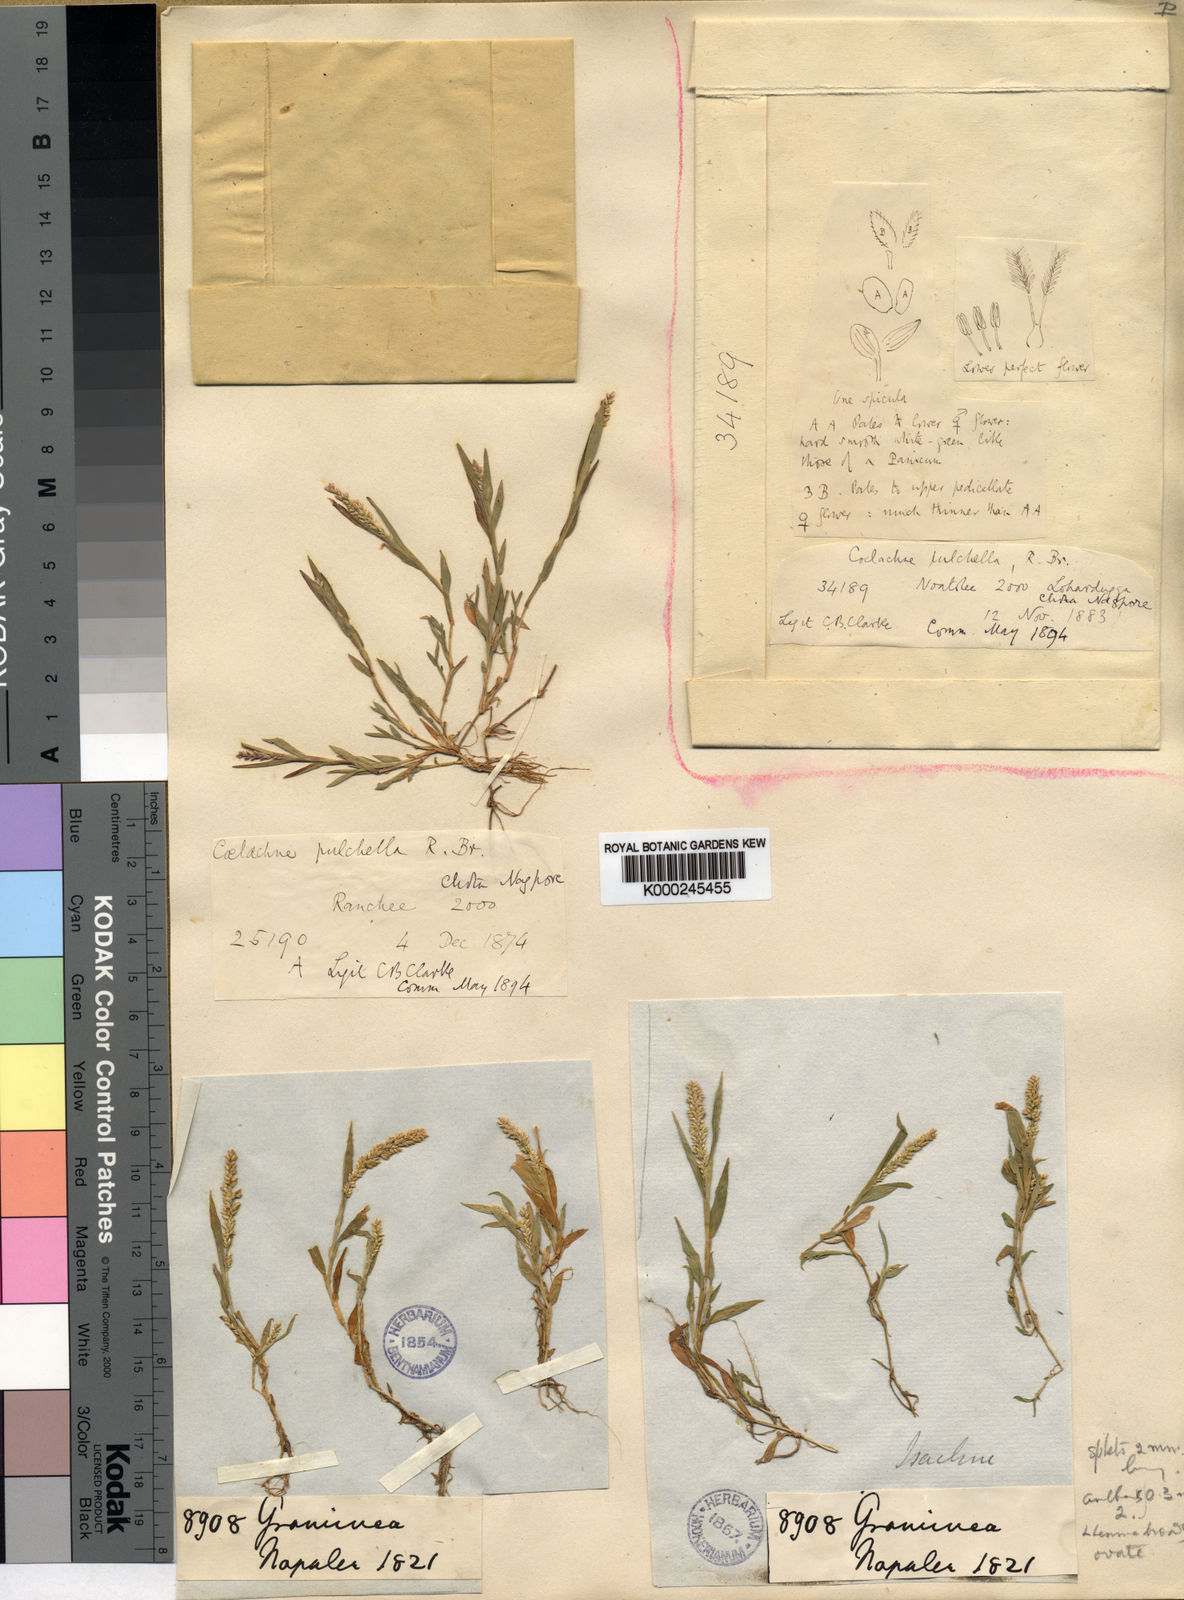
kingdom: Plantae
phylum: Tracheophyta
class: Liliopsida
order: Poales
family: Poaceae
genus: Coelachne
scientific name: Coelachne simpliciuscula
